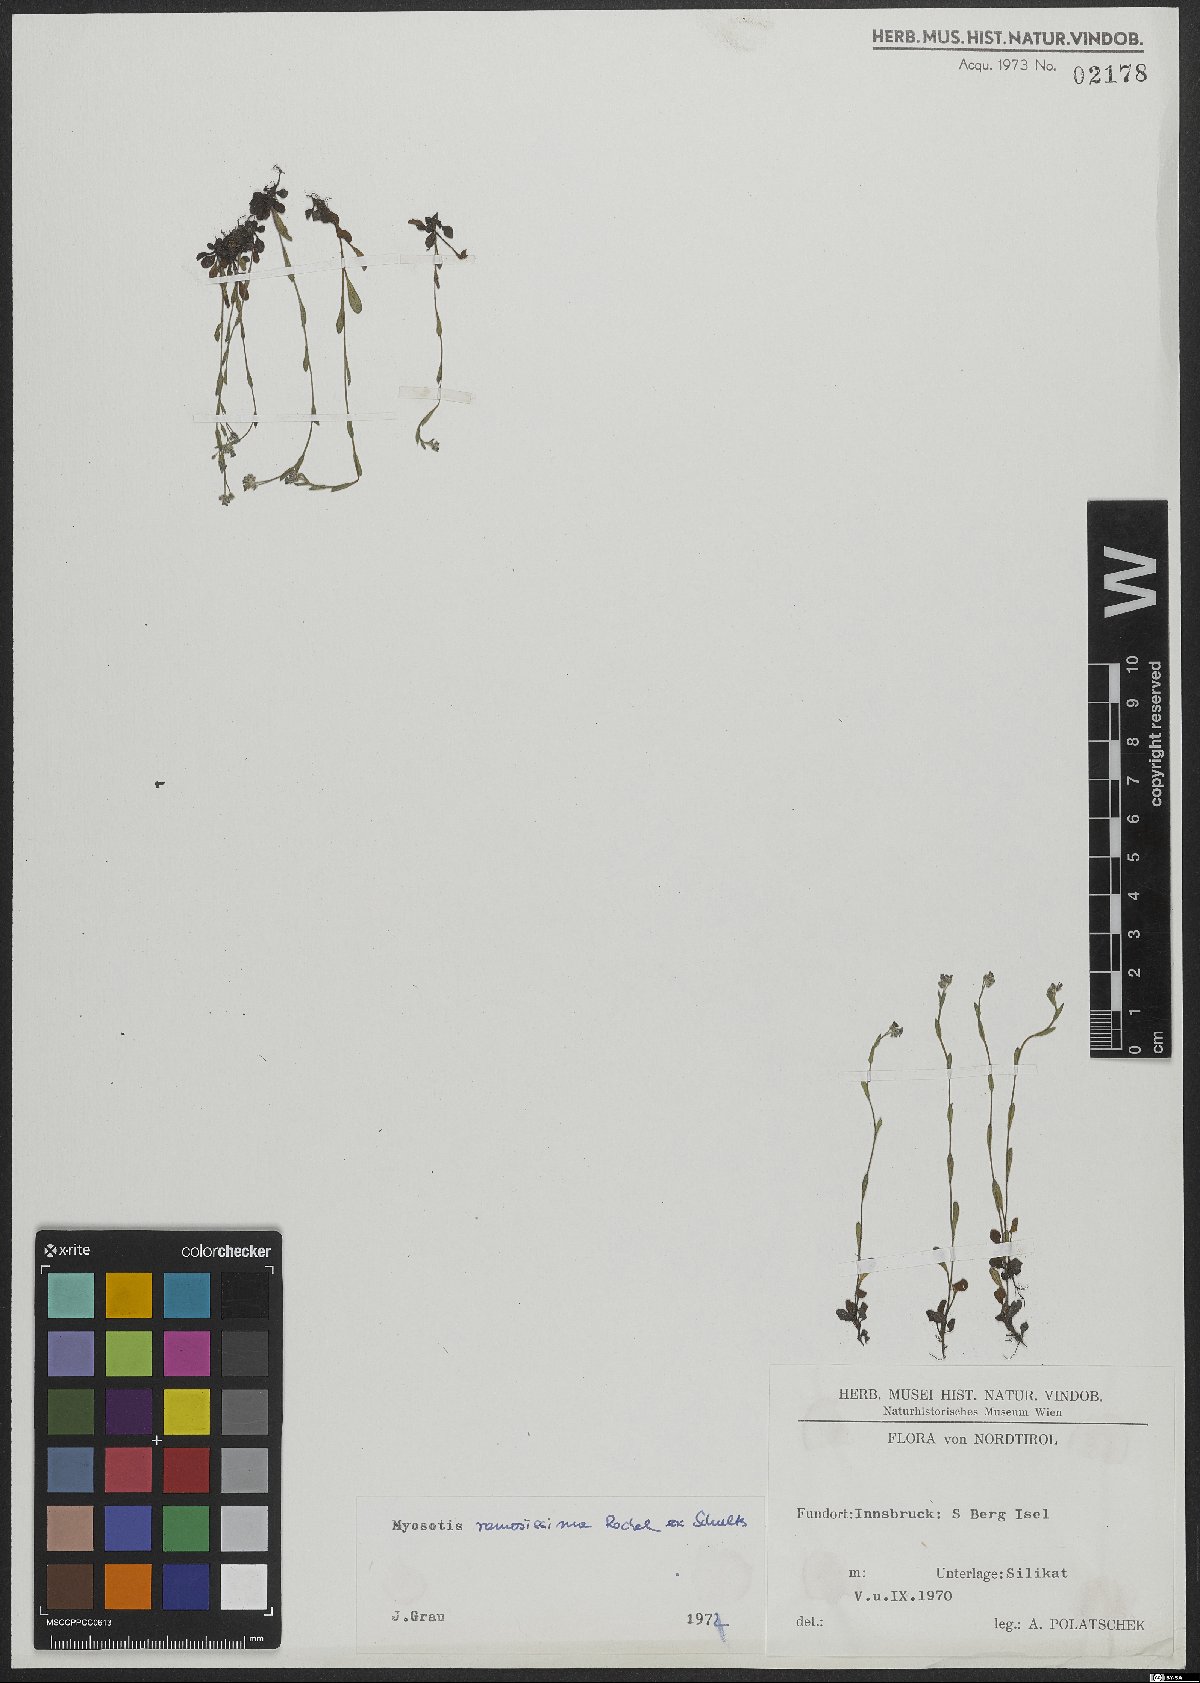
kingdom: Plantae
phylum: Tracheophyta
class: Magnoliopsida
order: Boraginales
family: Boraginaceae
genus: Myosotis
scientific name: Myosotis ramosissima
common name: Early forget-me-not
